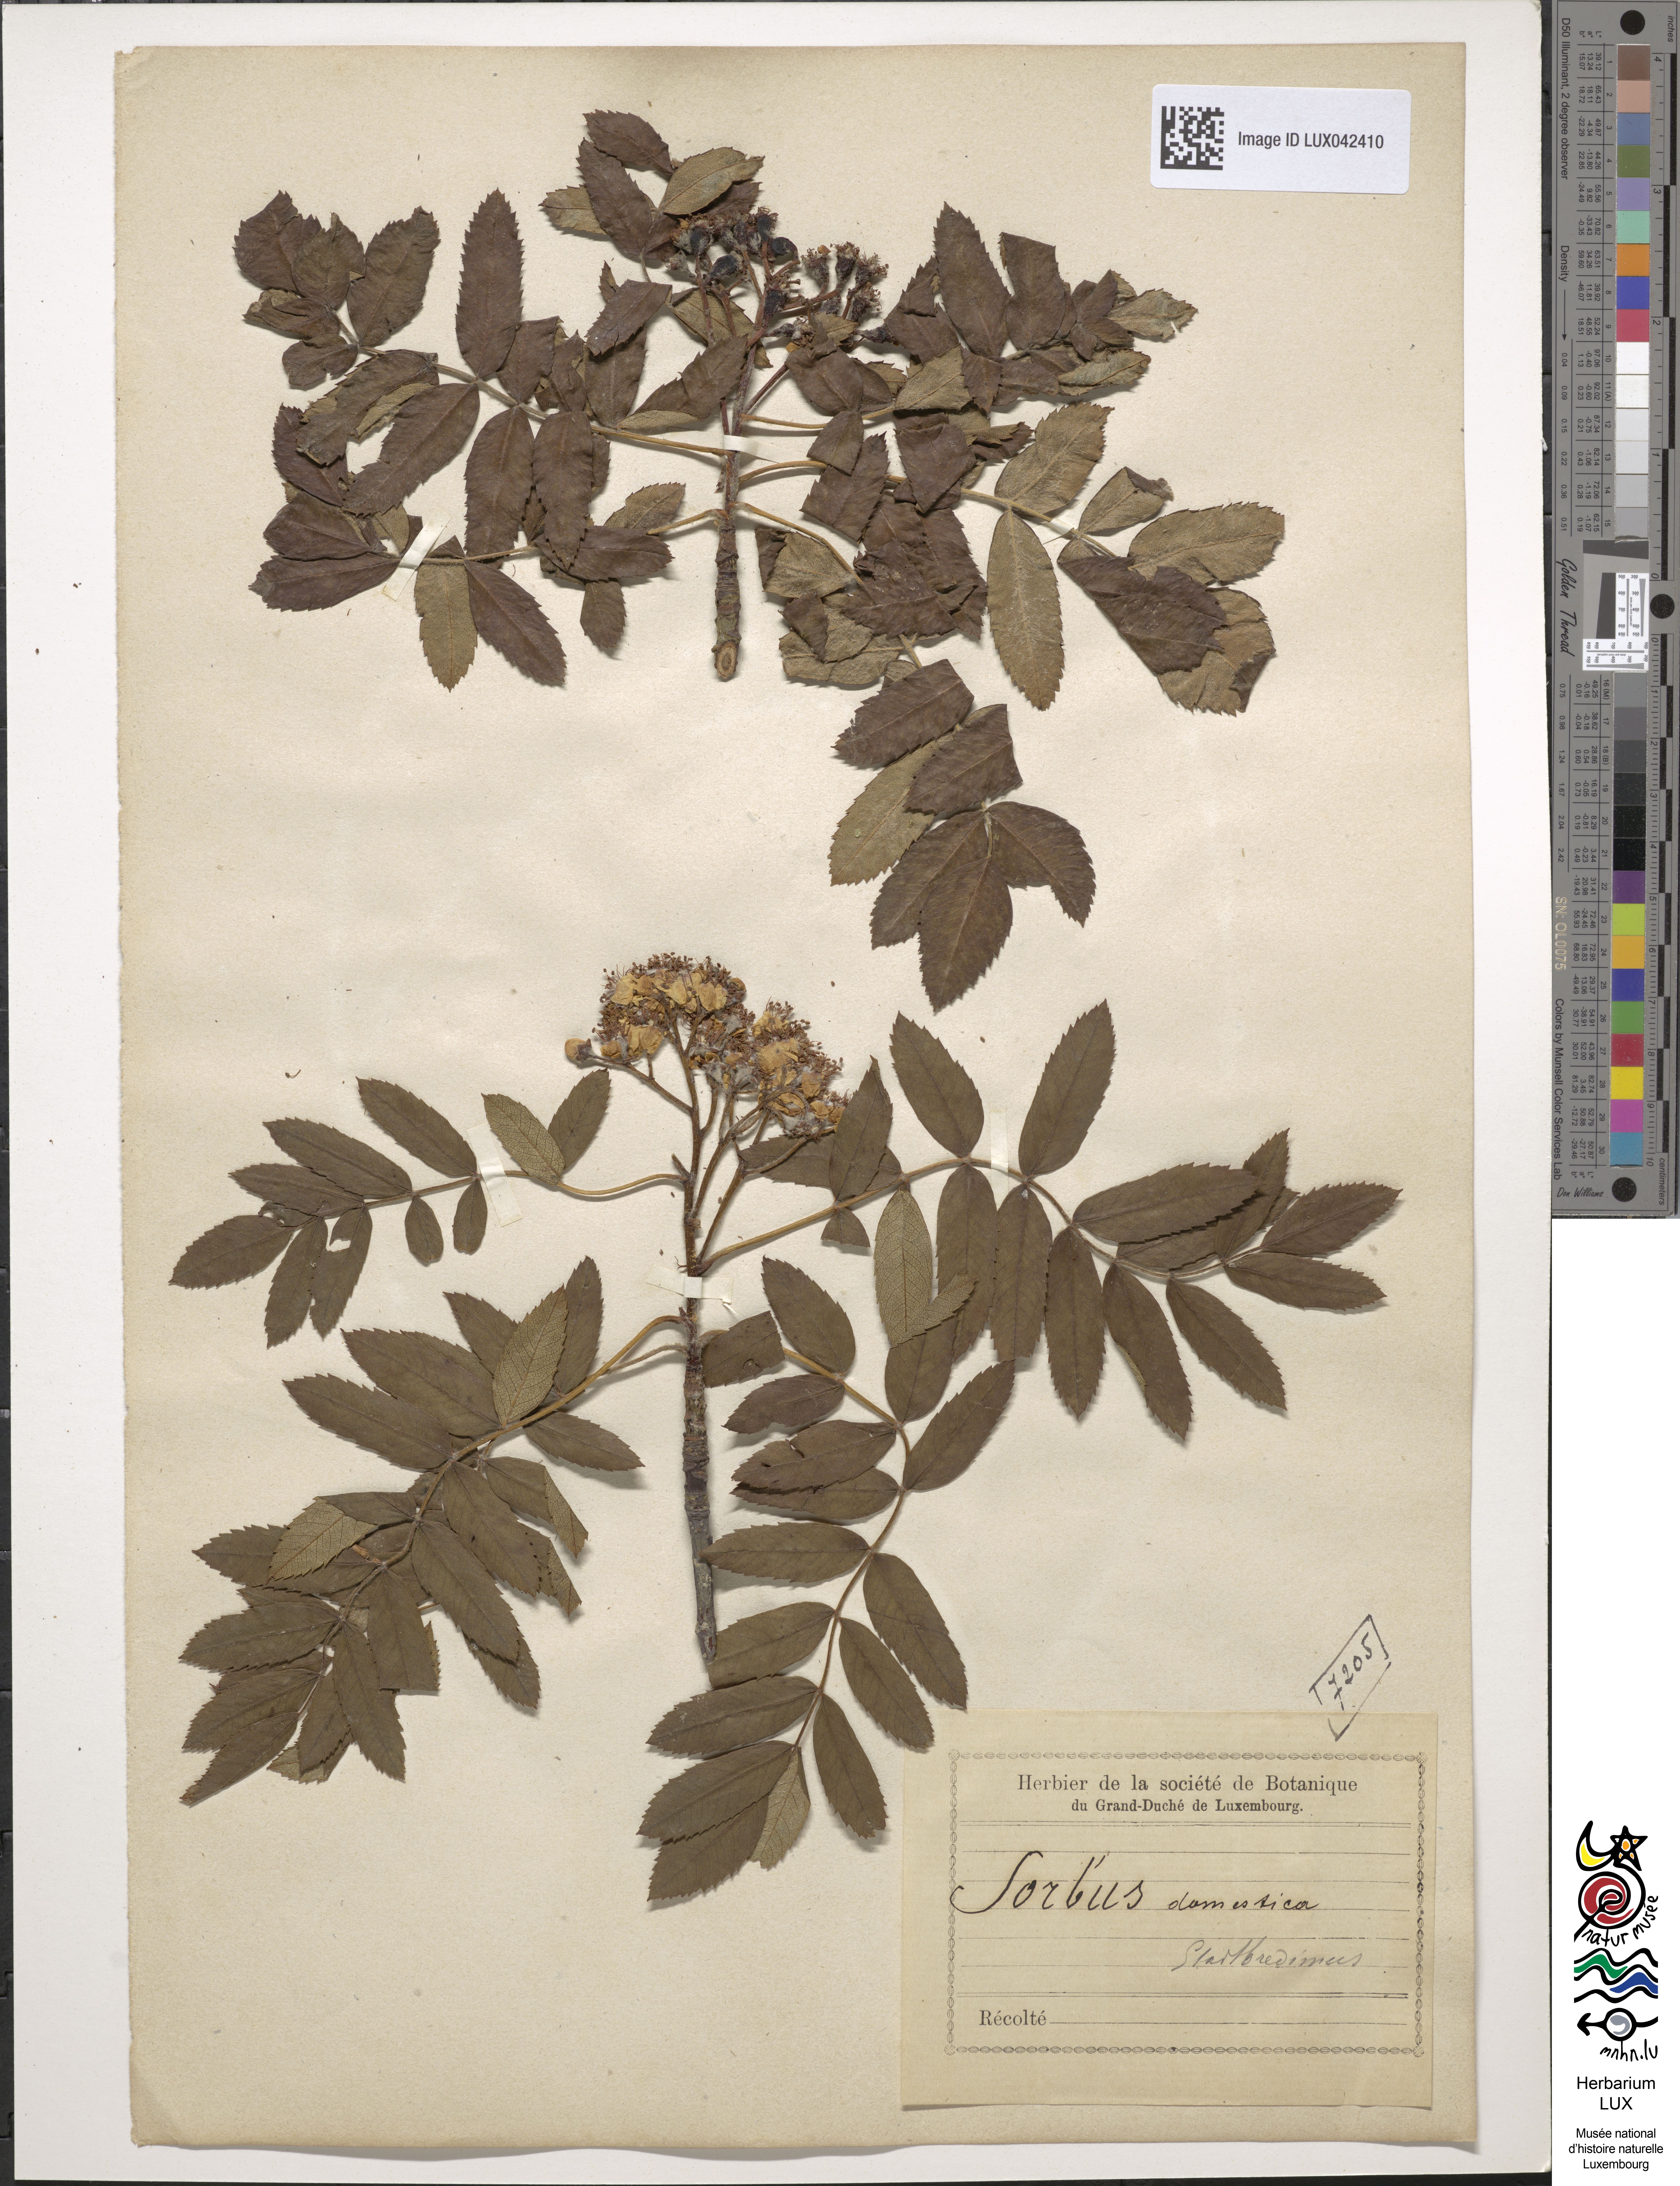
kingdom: Plantae
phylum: Tracheophyta
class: Magnoliopsida
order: Rosales
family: Rosaceae
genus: Cormus
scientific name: Cormus domestica
